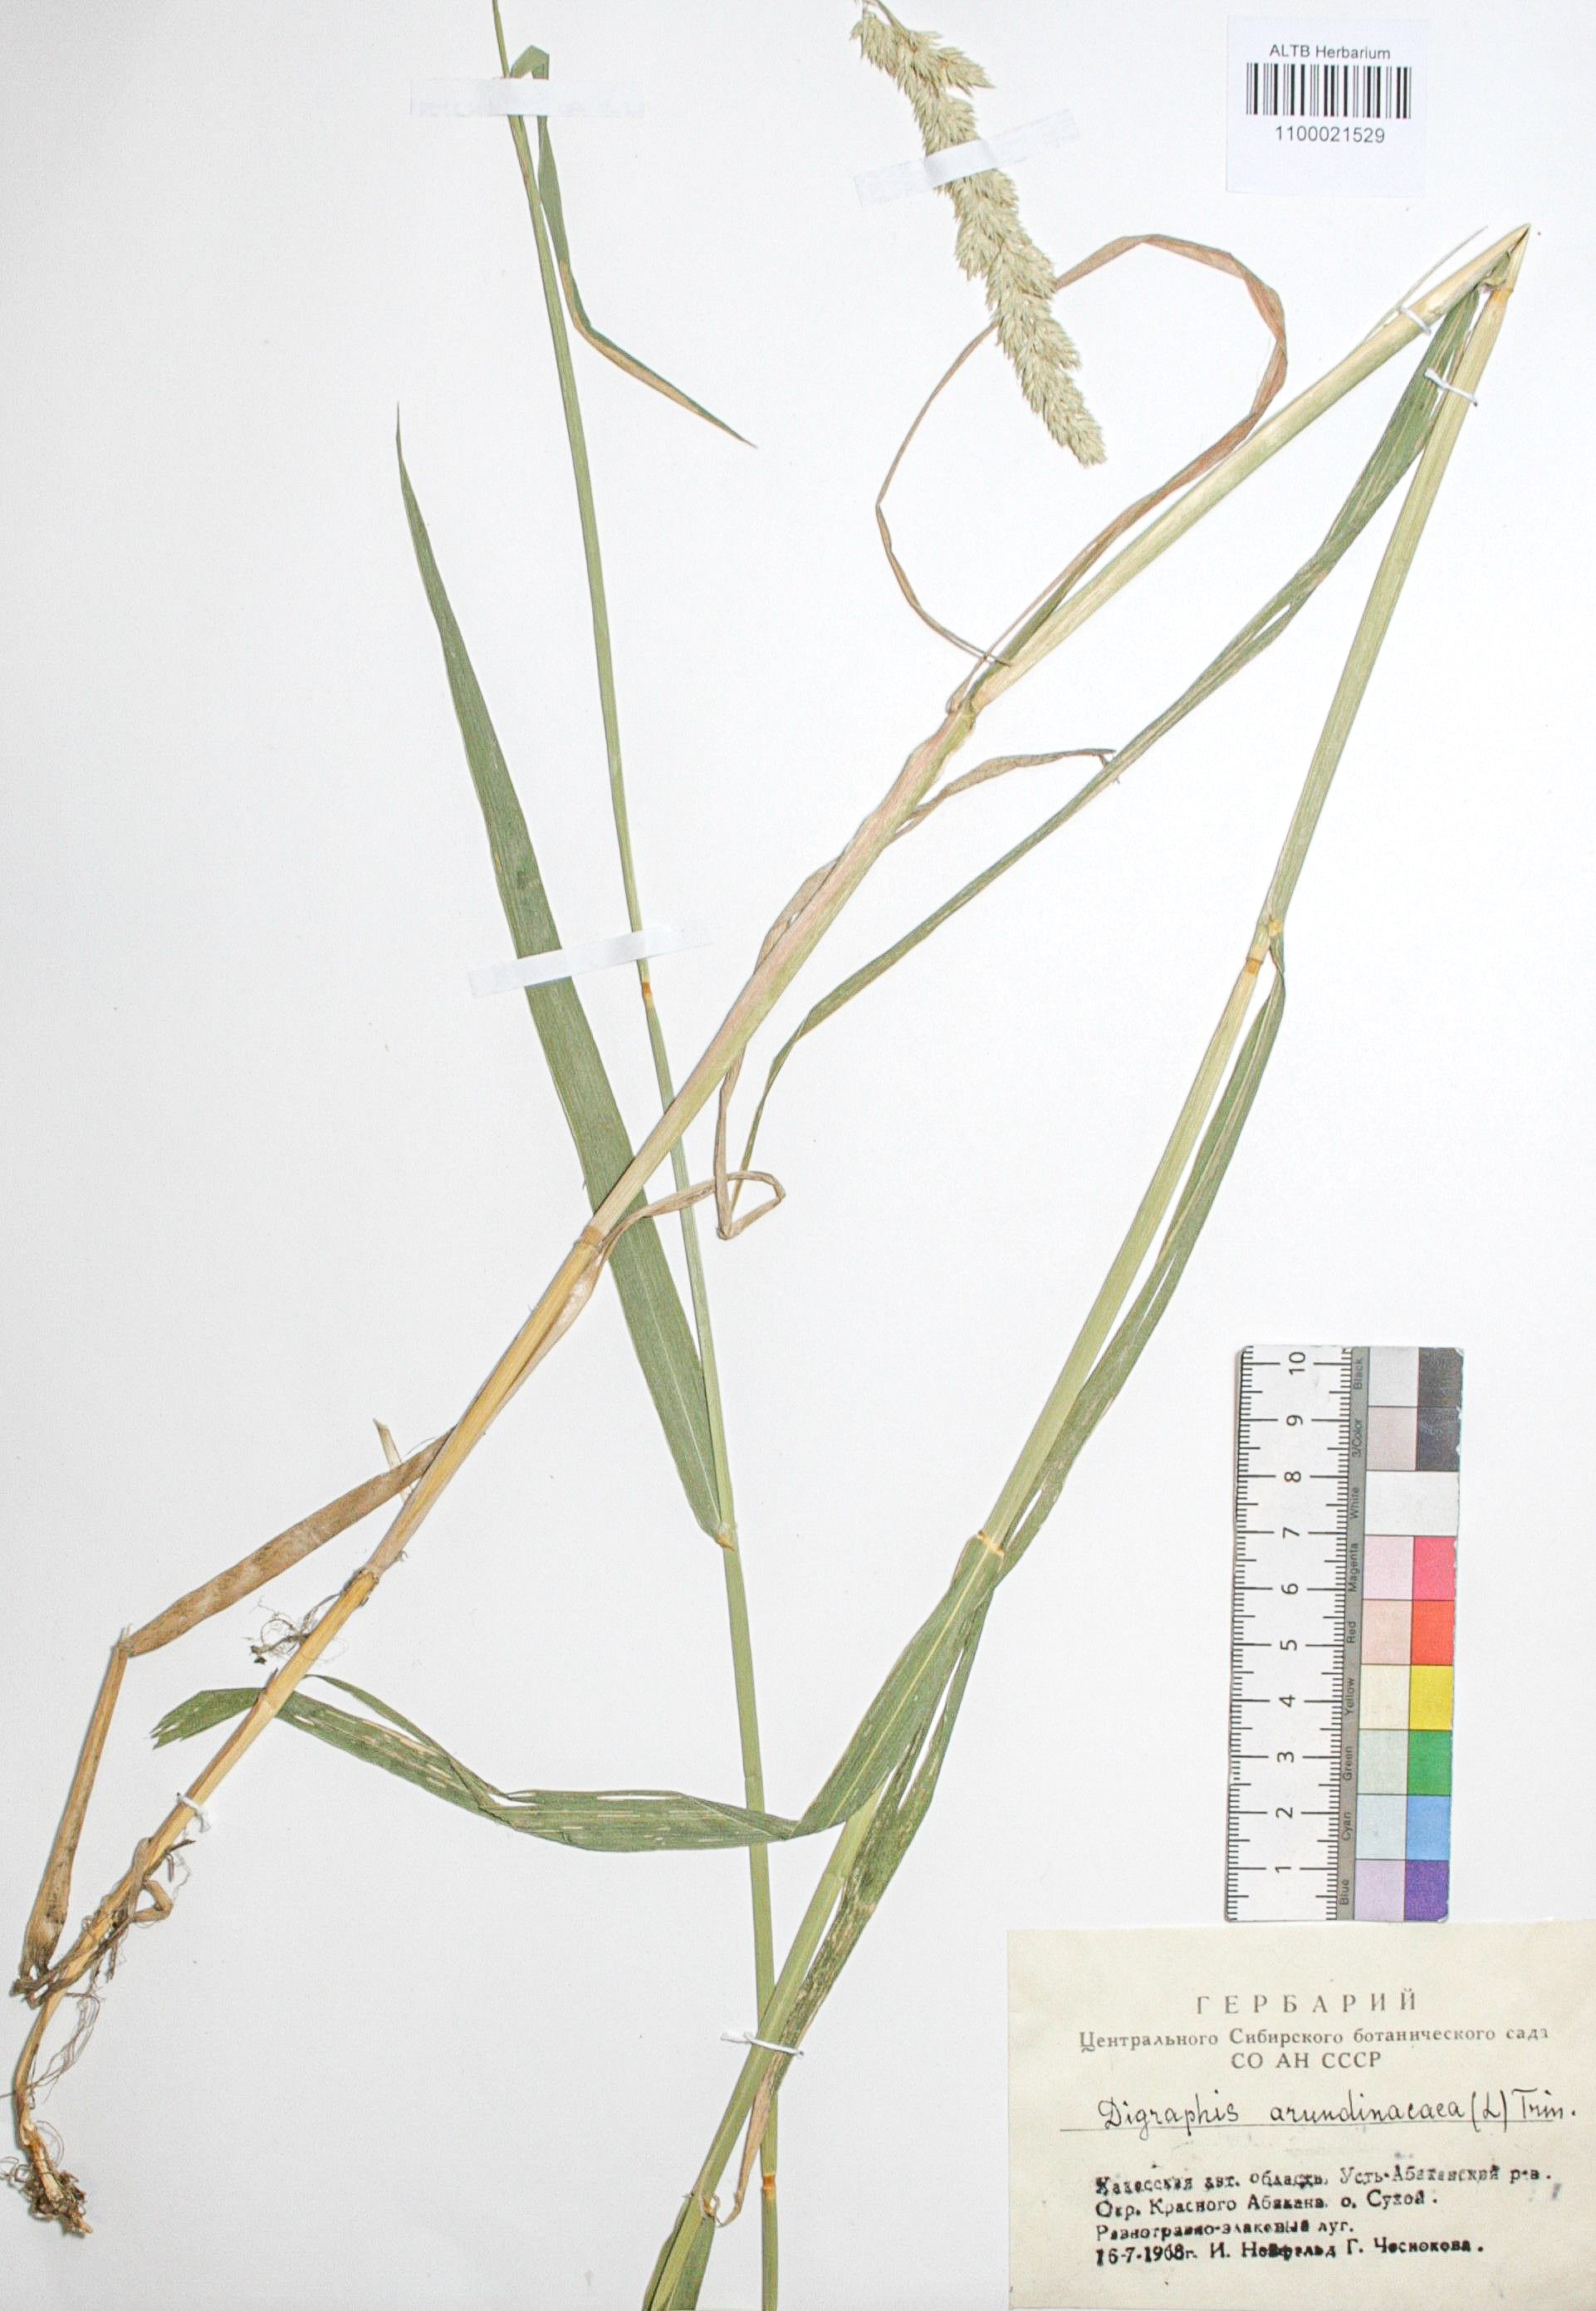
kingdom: Plantae
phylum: Tracheophyta
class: Liliopsida
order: Poales
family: Poaceae
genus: Phalaris
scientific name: Phalaris arundinacea
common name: Reed canary-grass
